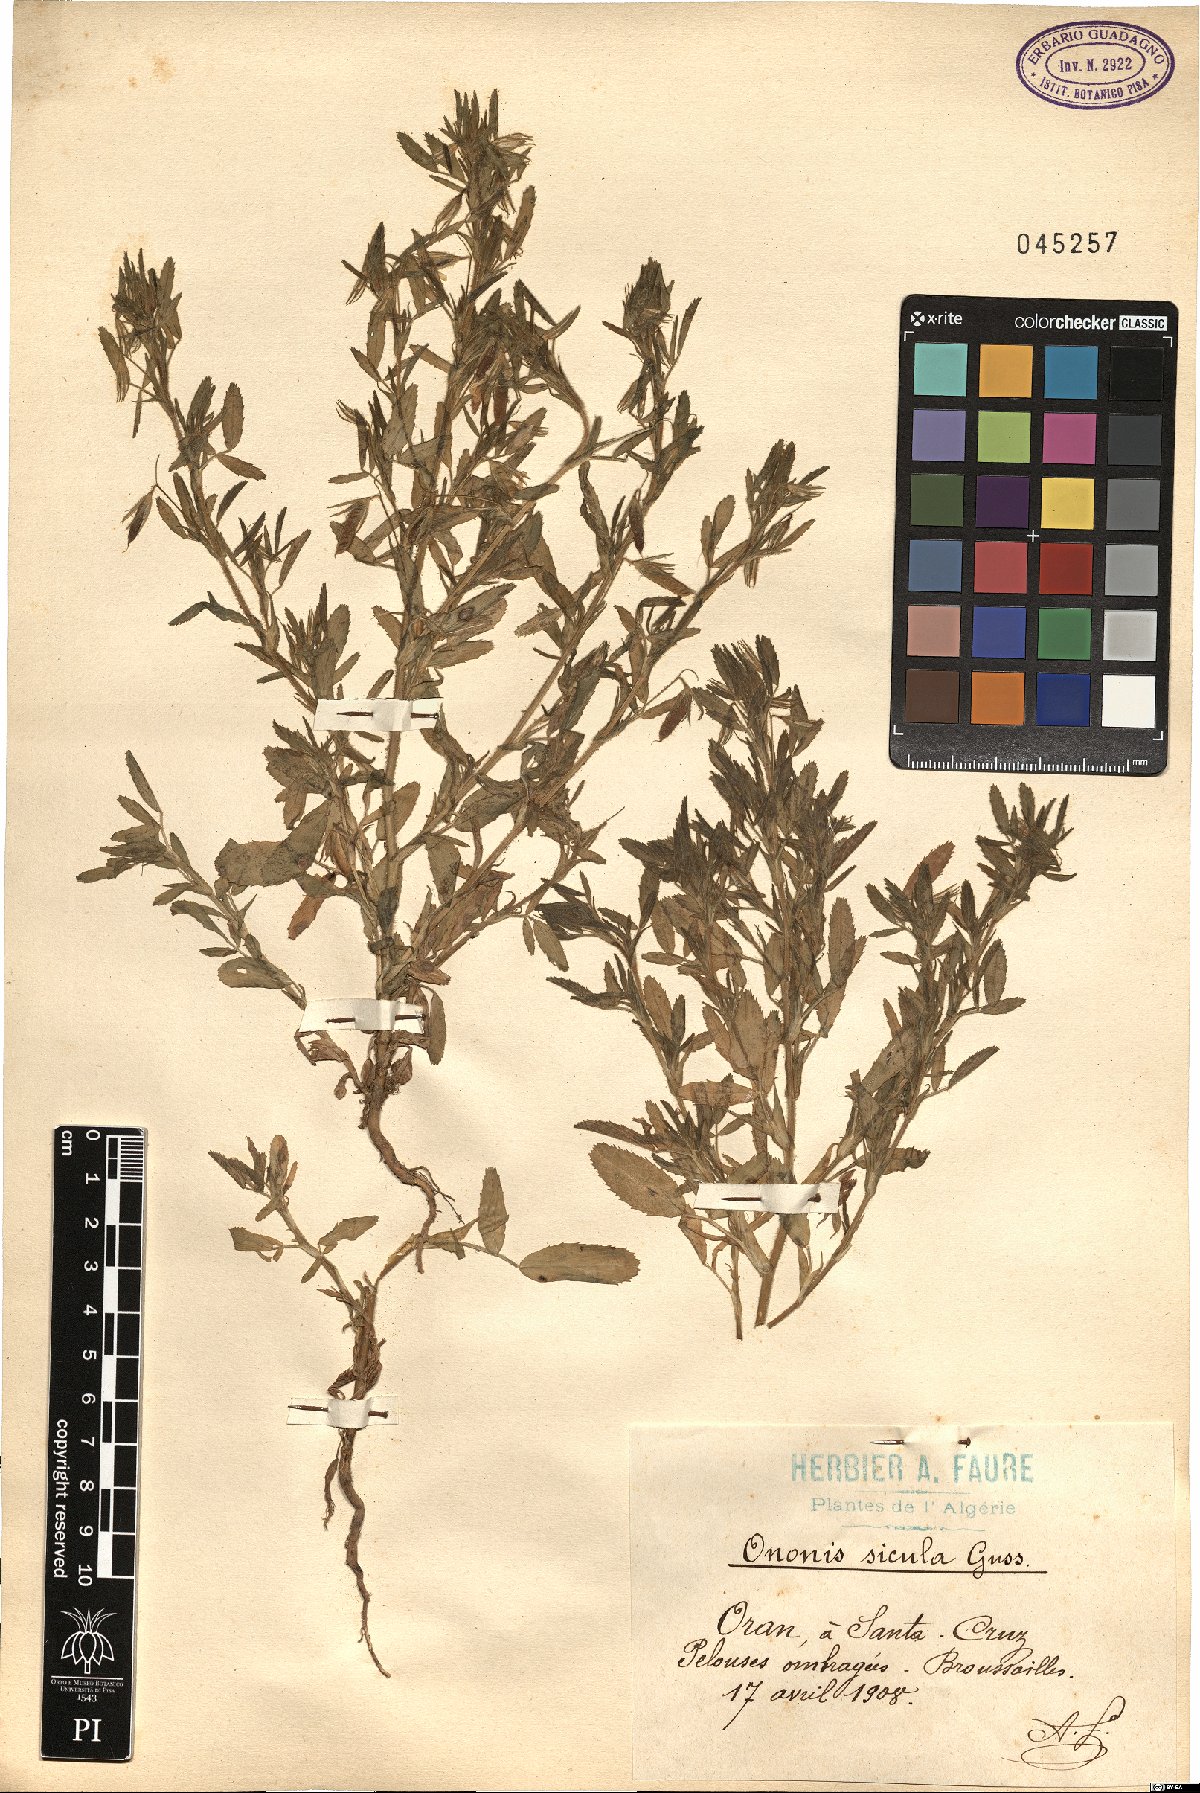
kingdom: Plantae
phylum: Tracheophyta
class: Magnoliopsida
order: Fabales
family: Fabaceae
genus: Ononis
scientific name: Ononis sicula
